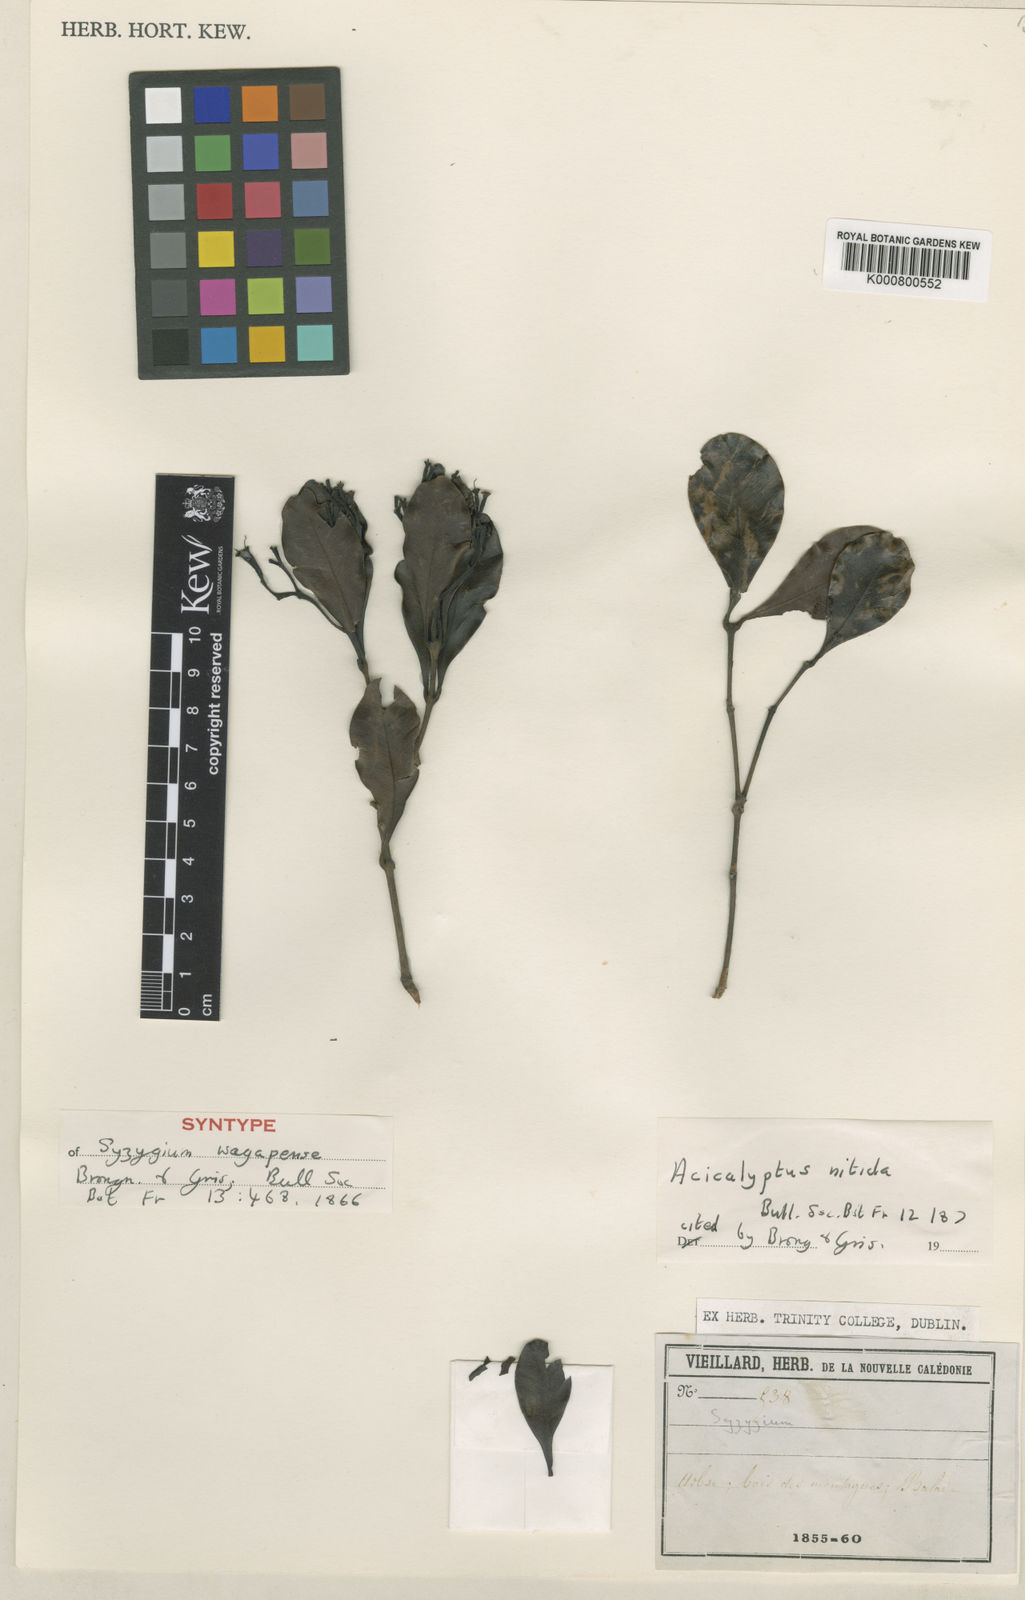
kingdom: Plantae
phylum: Tracheophyta
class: Magnoliopsida
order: Myrtales
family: Myrtaceae
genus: Syzygium
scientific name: Syzygium wagapense
